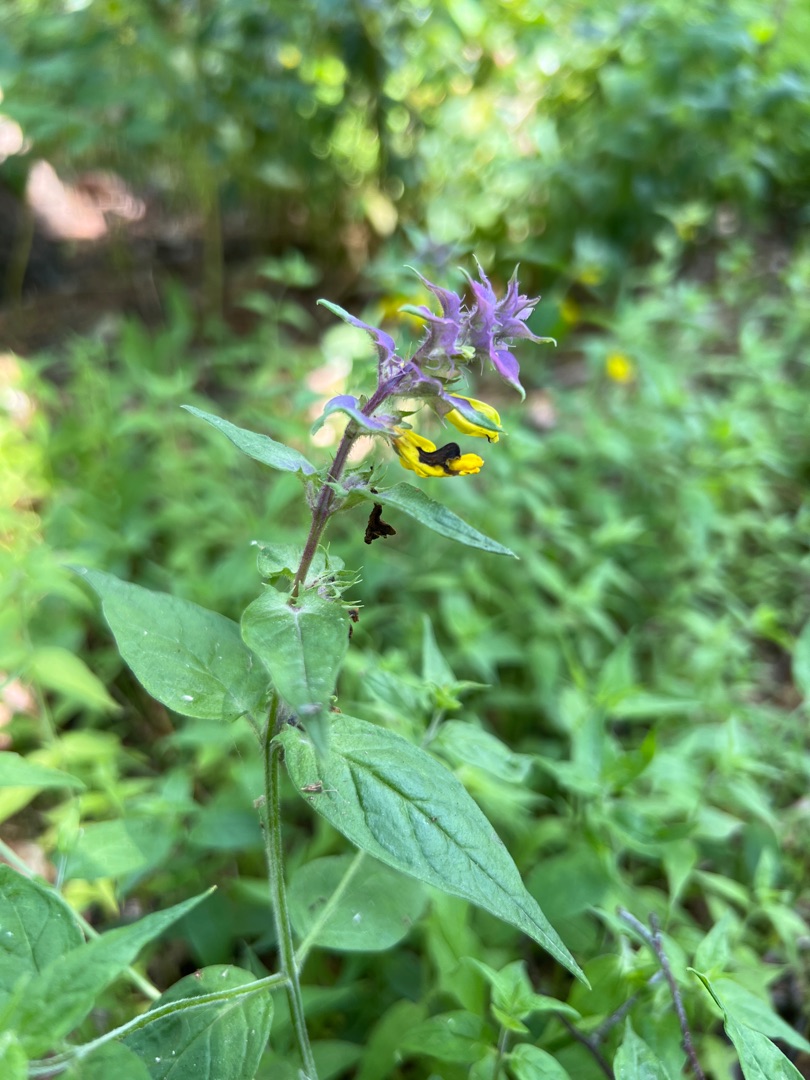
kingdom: Plantae
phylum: Tracheophyta
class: Magnoliopsida
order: Lamiales
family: Orobanchaceae
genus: Melampyrum
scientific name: Melampyrum nemorosum
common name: Blåtoppet kohvede
